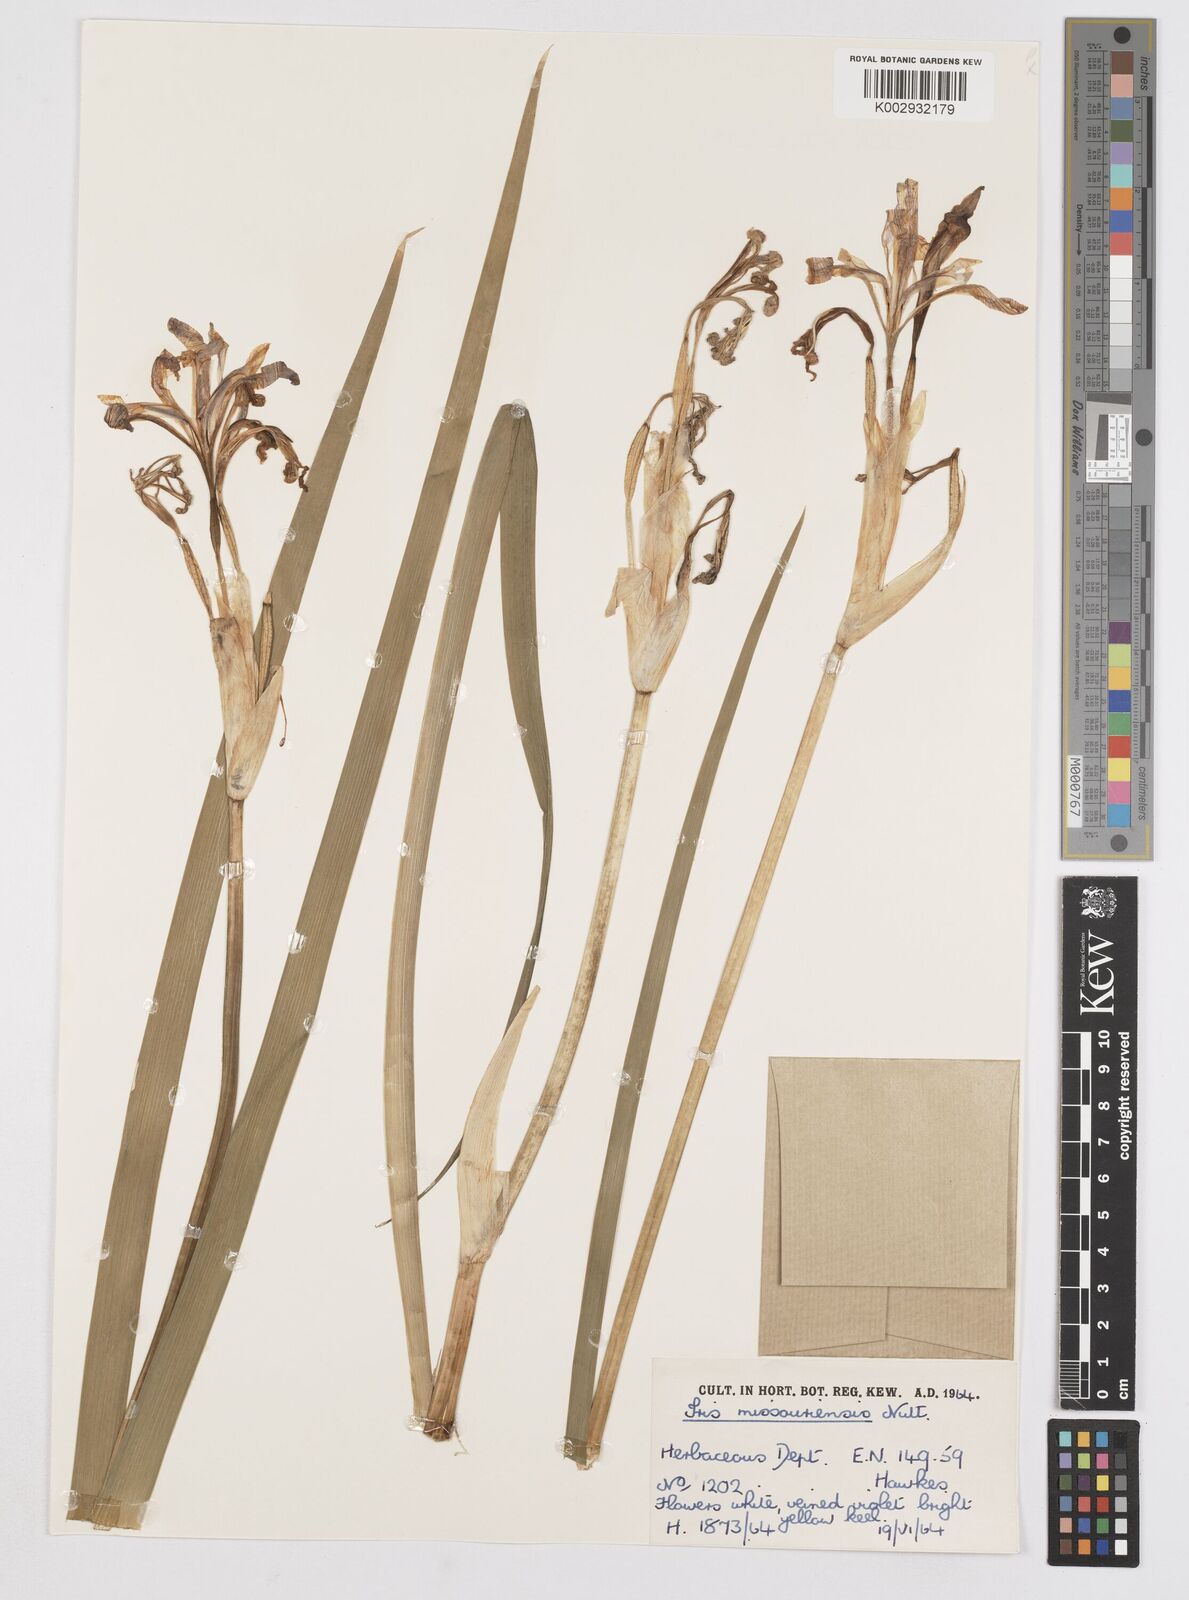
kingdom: Plantae
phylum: Tracheophyta
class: Liliopsida
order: Asparagales
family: Iridaceae
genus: Iris
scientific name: Iris missouriensis
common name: Rocky mountain iris
